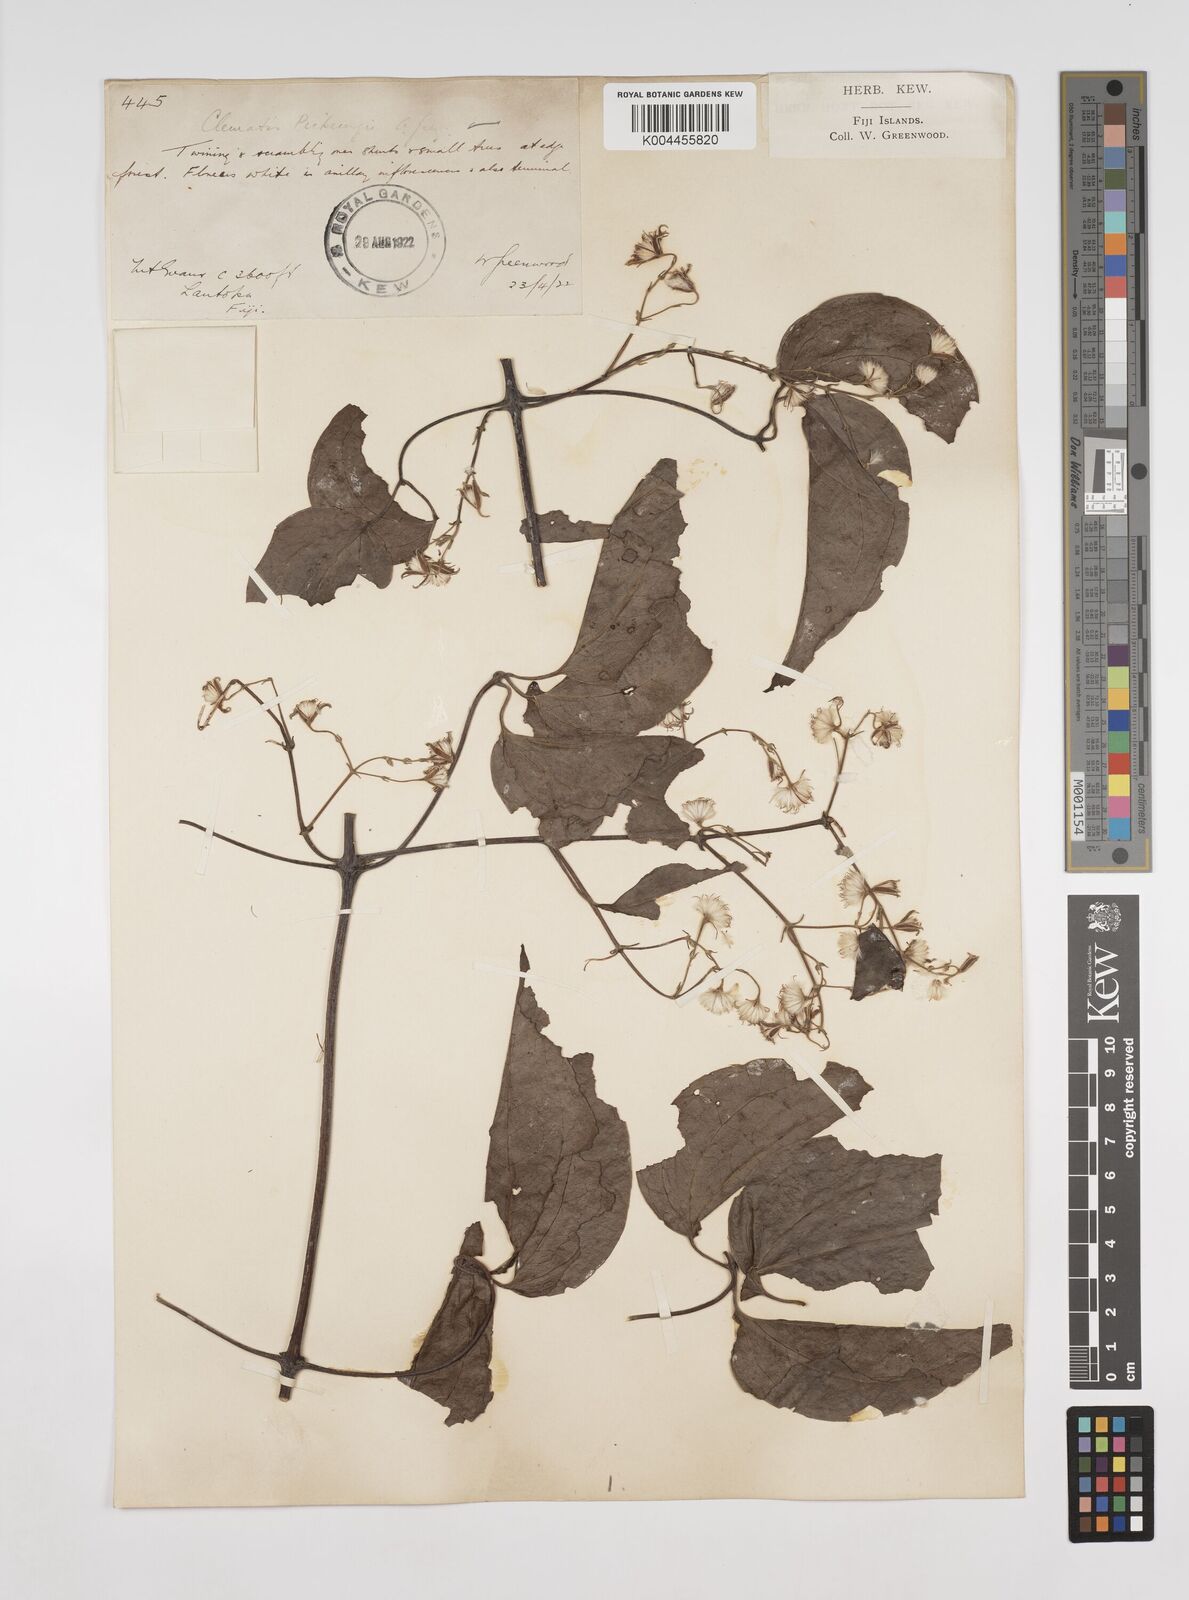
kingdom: Plantae
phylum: Tracheophyta
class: Magnoliopsida
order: Ranunculales
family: Ranunculaceae
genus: Clematis
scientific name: Clematis pickeringii
